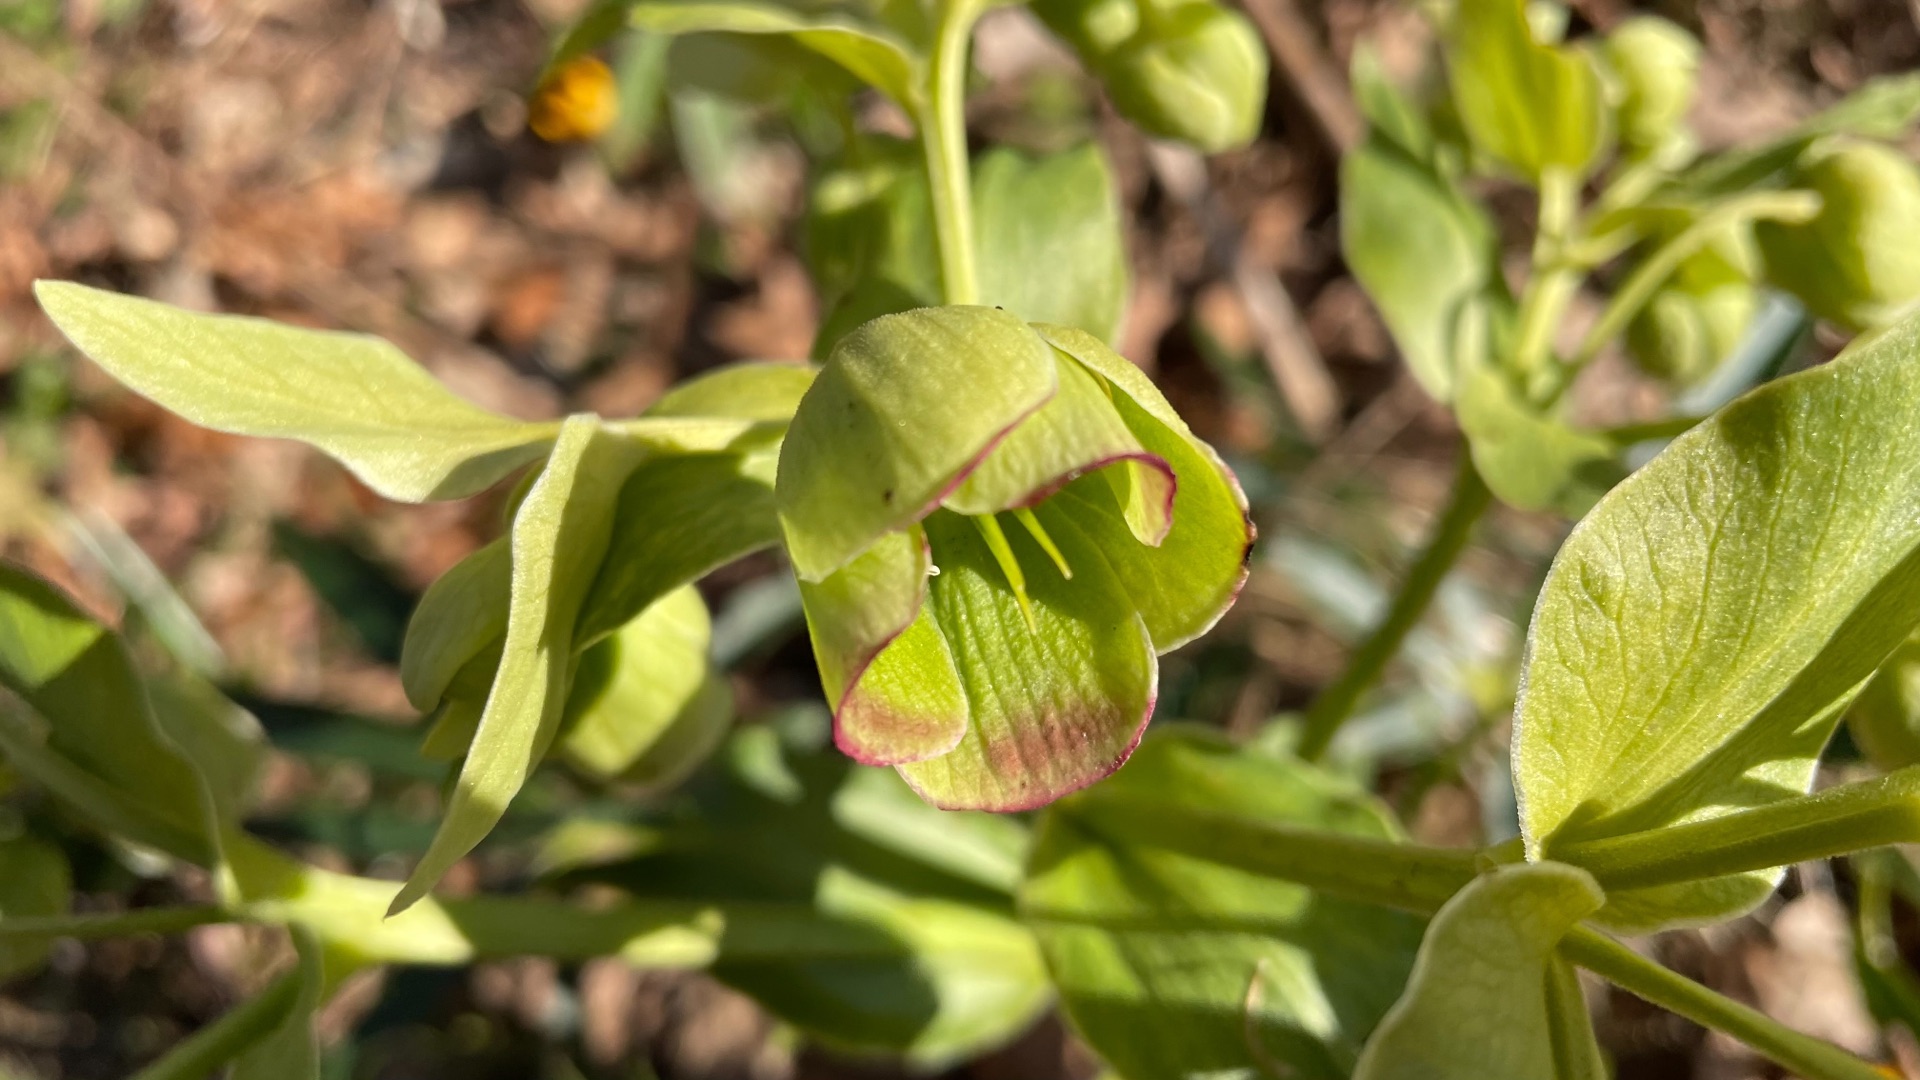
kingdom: Plantae
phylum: Tracheophyta
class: Magnoliopsida
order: Ranunculales
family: Ranunculaceae
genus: Helleborus
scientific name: Helleborus foetidus
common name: Stinkende julerose
